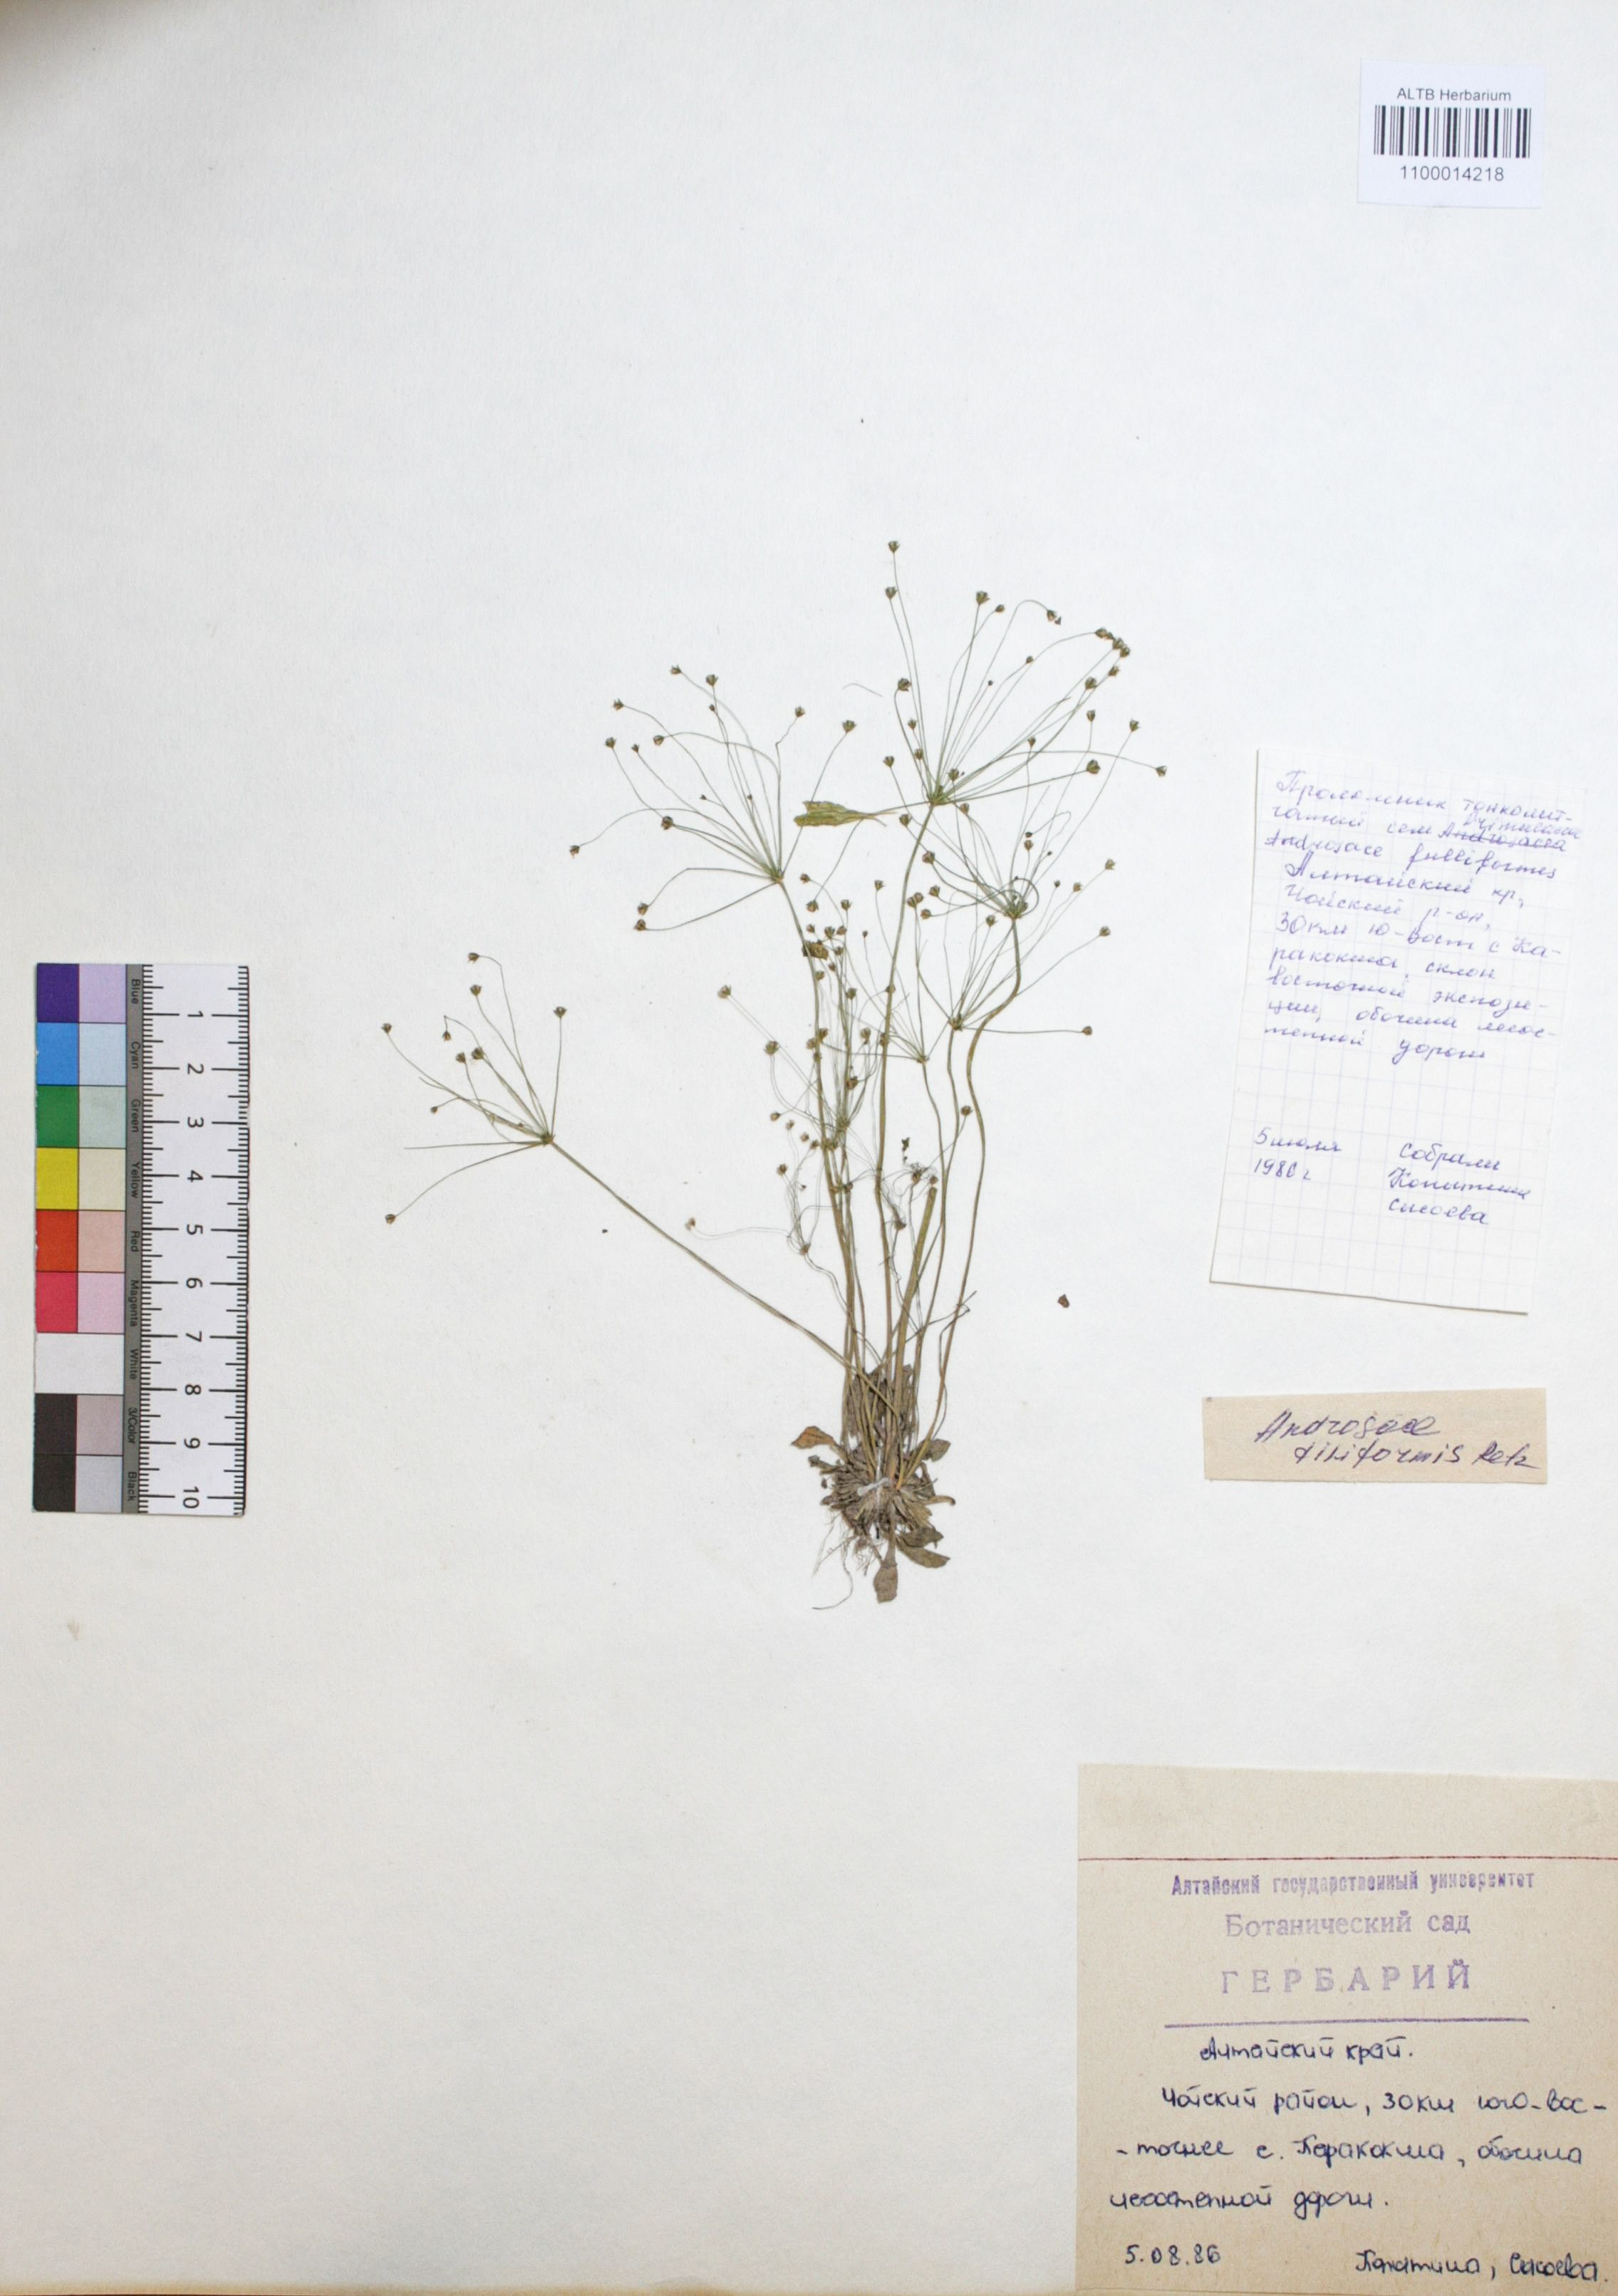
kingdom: Plantae
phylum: Tracheophyta
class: Magnoliopsida
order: Ericales
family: Primulaceae
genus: Androsace
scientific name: Androsace filiformis
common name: Filiform rock jasmine
